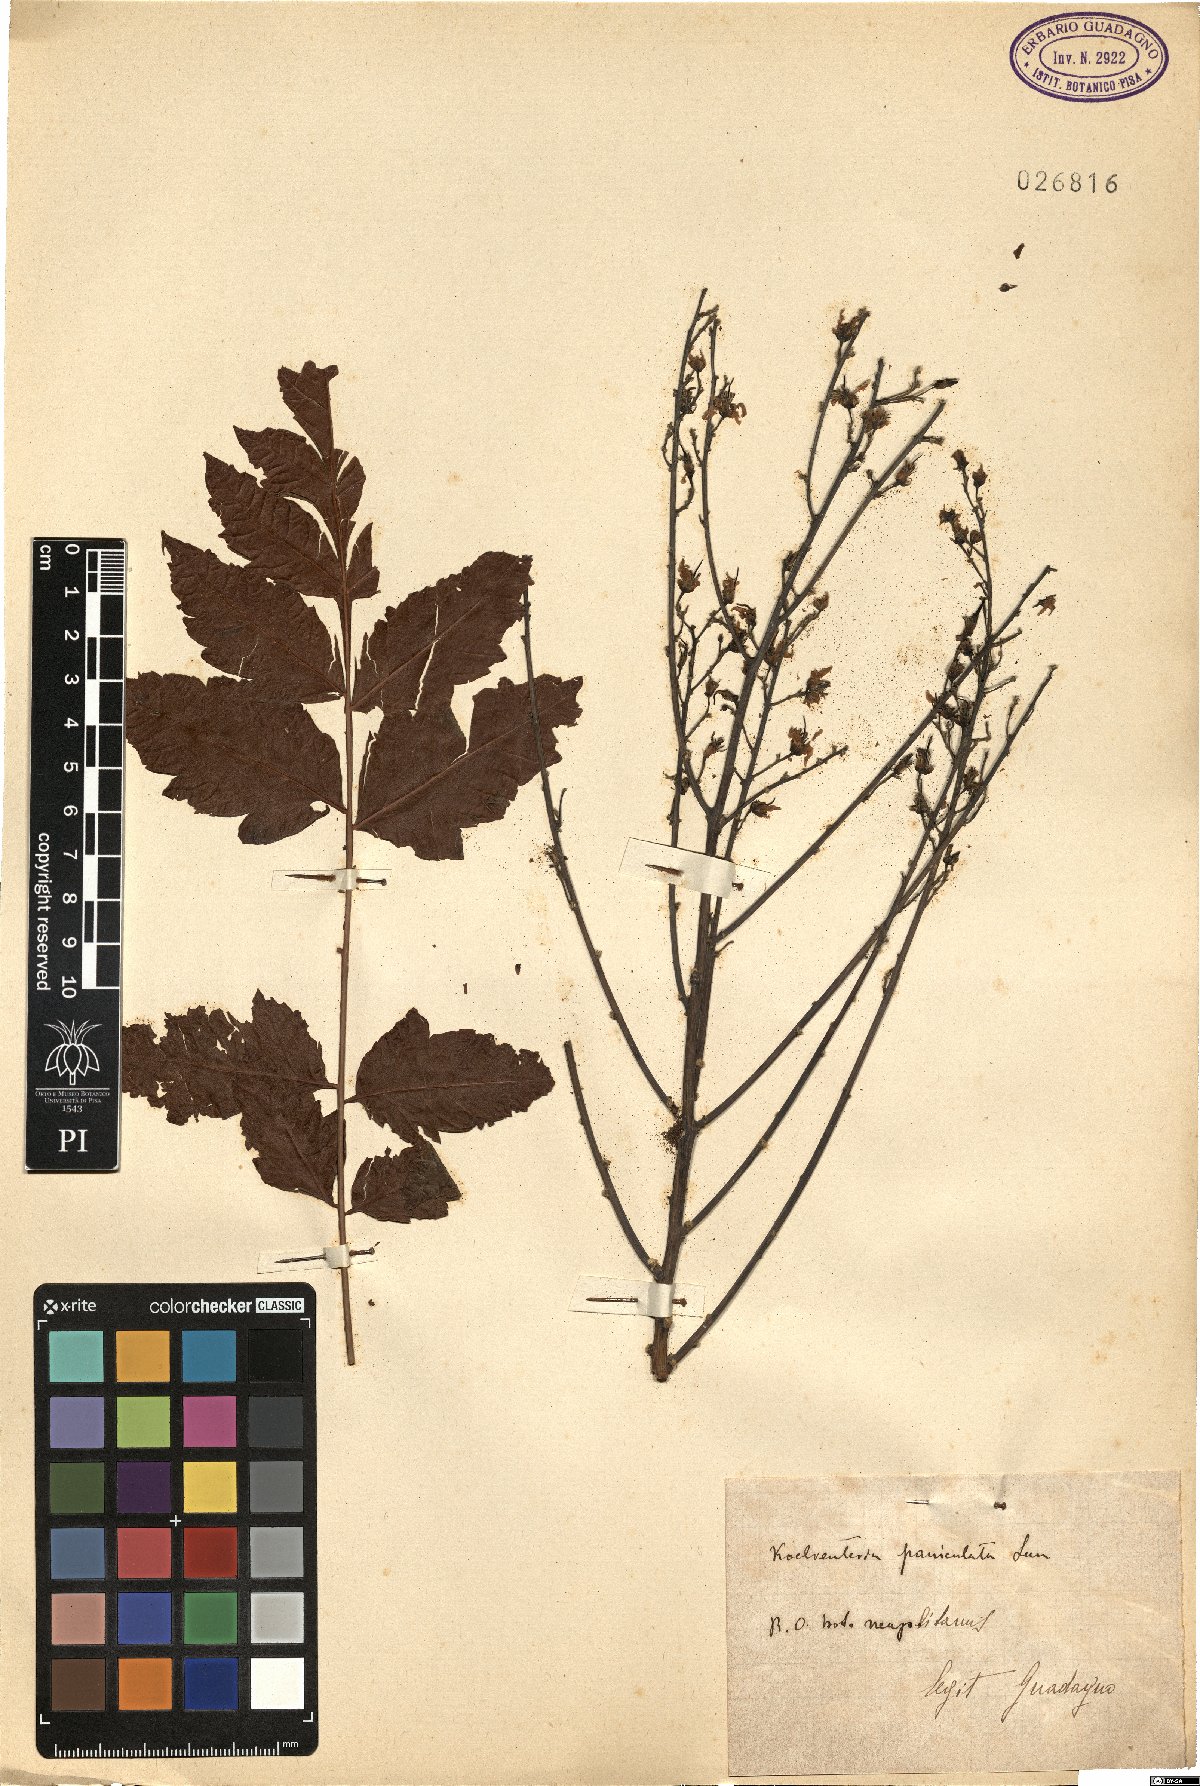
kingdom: Plantae
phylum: Tracheophyta
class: Magnoliopsida
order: Sapindales
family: Sapindaceae
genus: Koelreuteria
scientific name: Koelreuteria paniculata
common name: Pride-of-india
